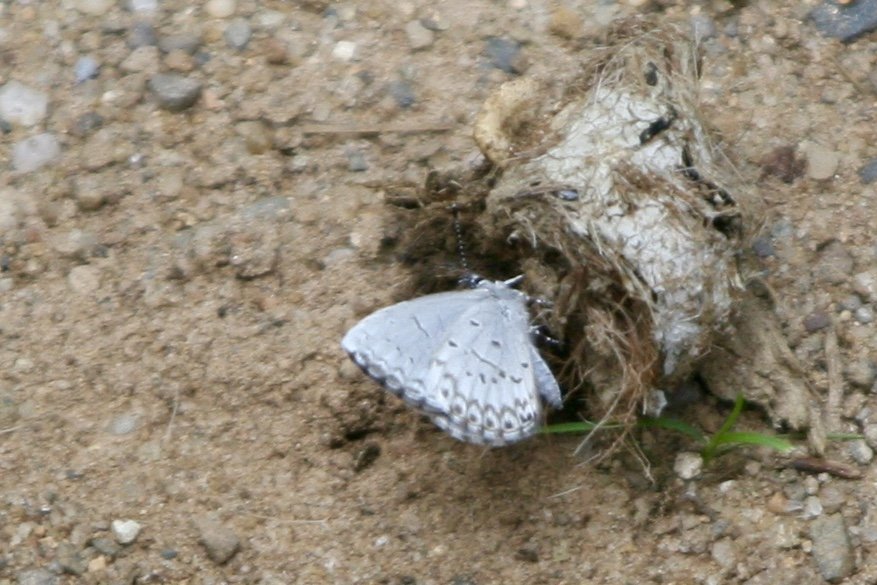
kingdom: Animalia
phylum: Arthropoda
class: Insecta
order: Lepidoptera
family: Lycaenidae
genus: Celastrina
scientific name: Celastrina lucia
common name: Northern Spring Azure
